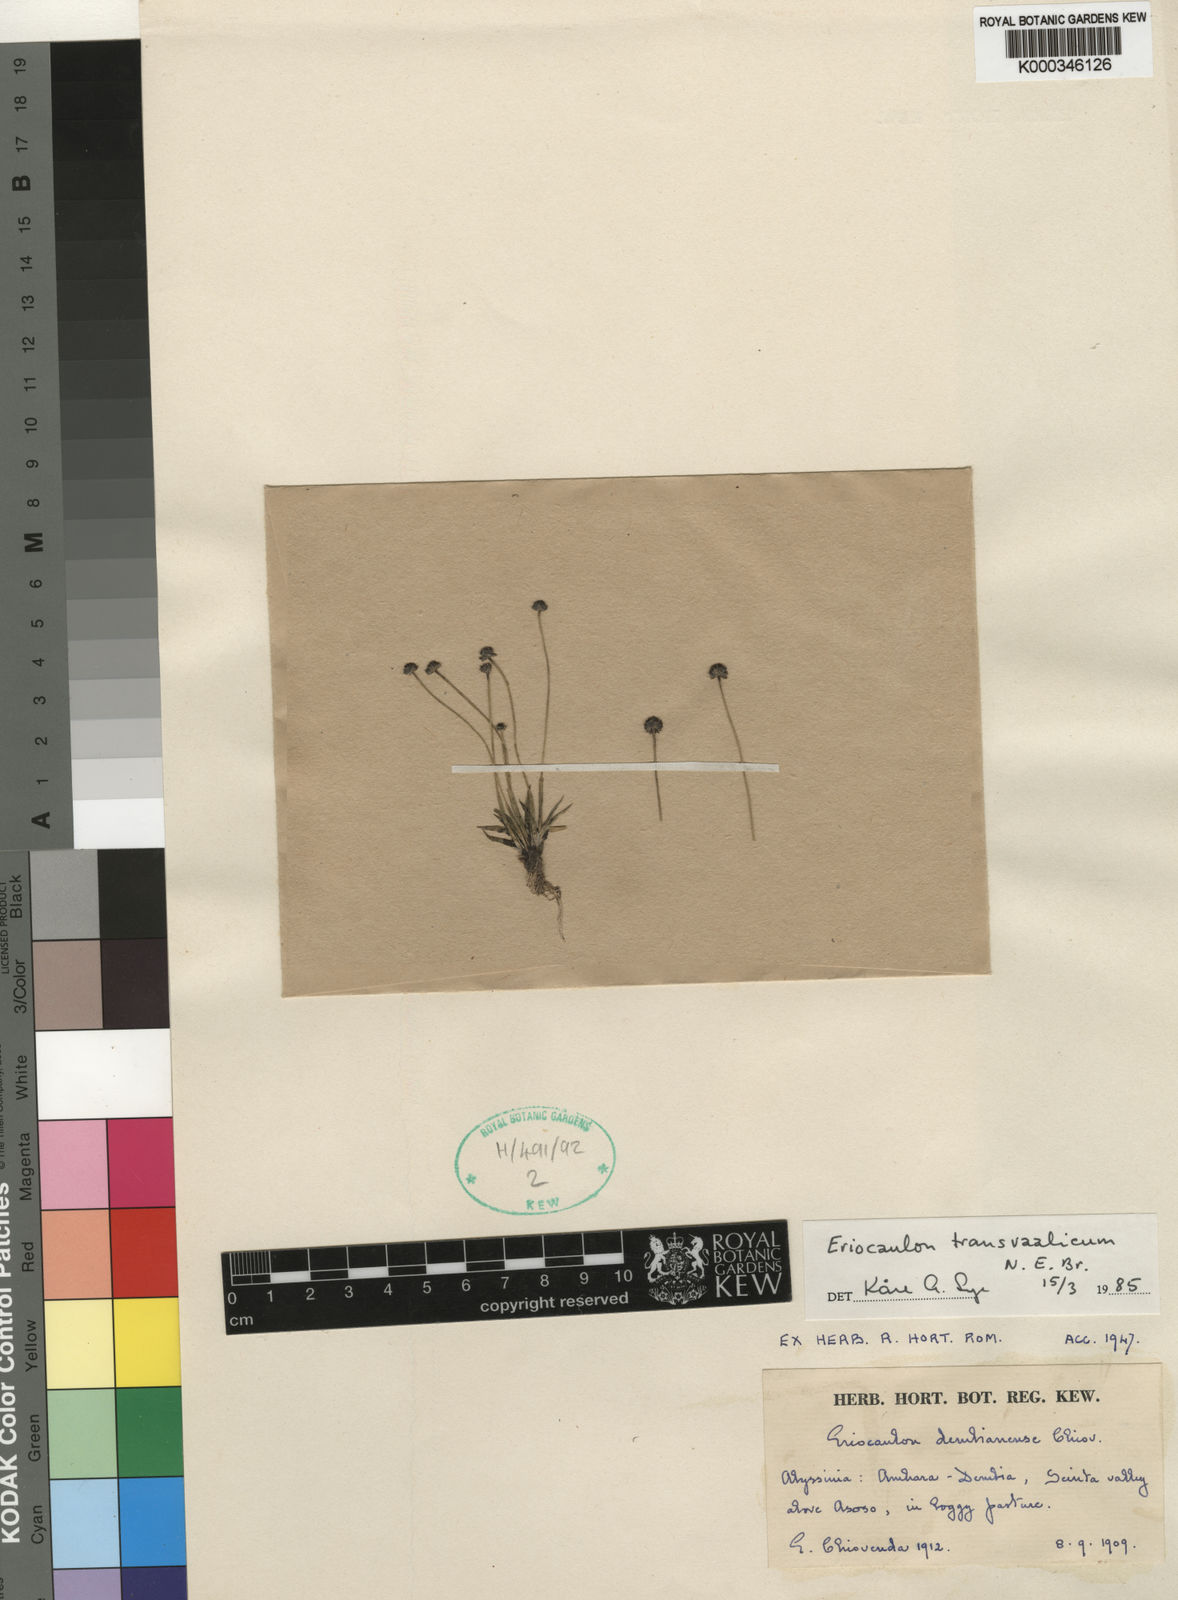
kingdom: Plantae
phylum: Tracheophyta
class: Liliopsida
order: Poales
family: Eriocaulaceae
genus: Eriocaulon
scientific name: Eriocaulon transvaalicum
